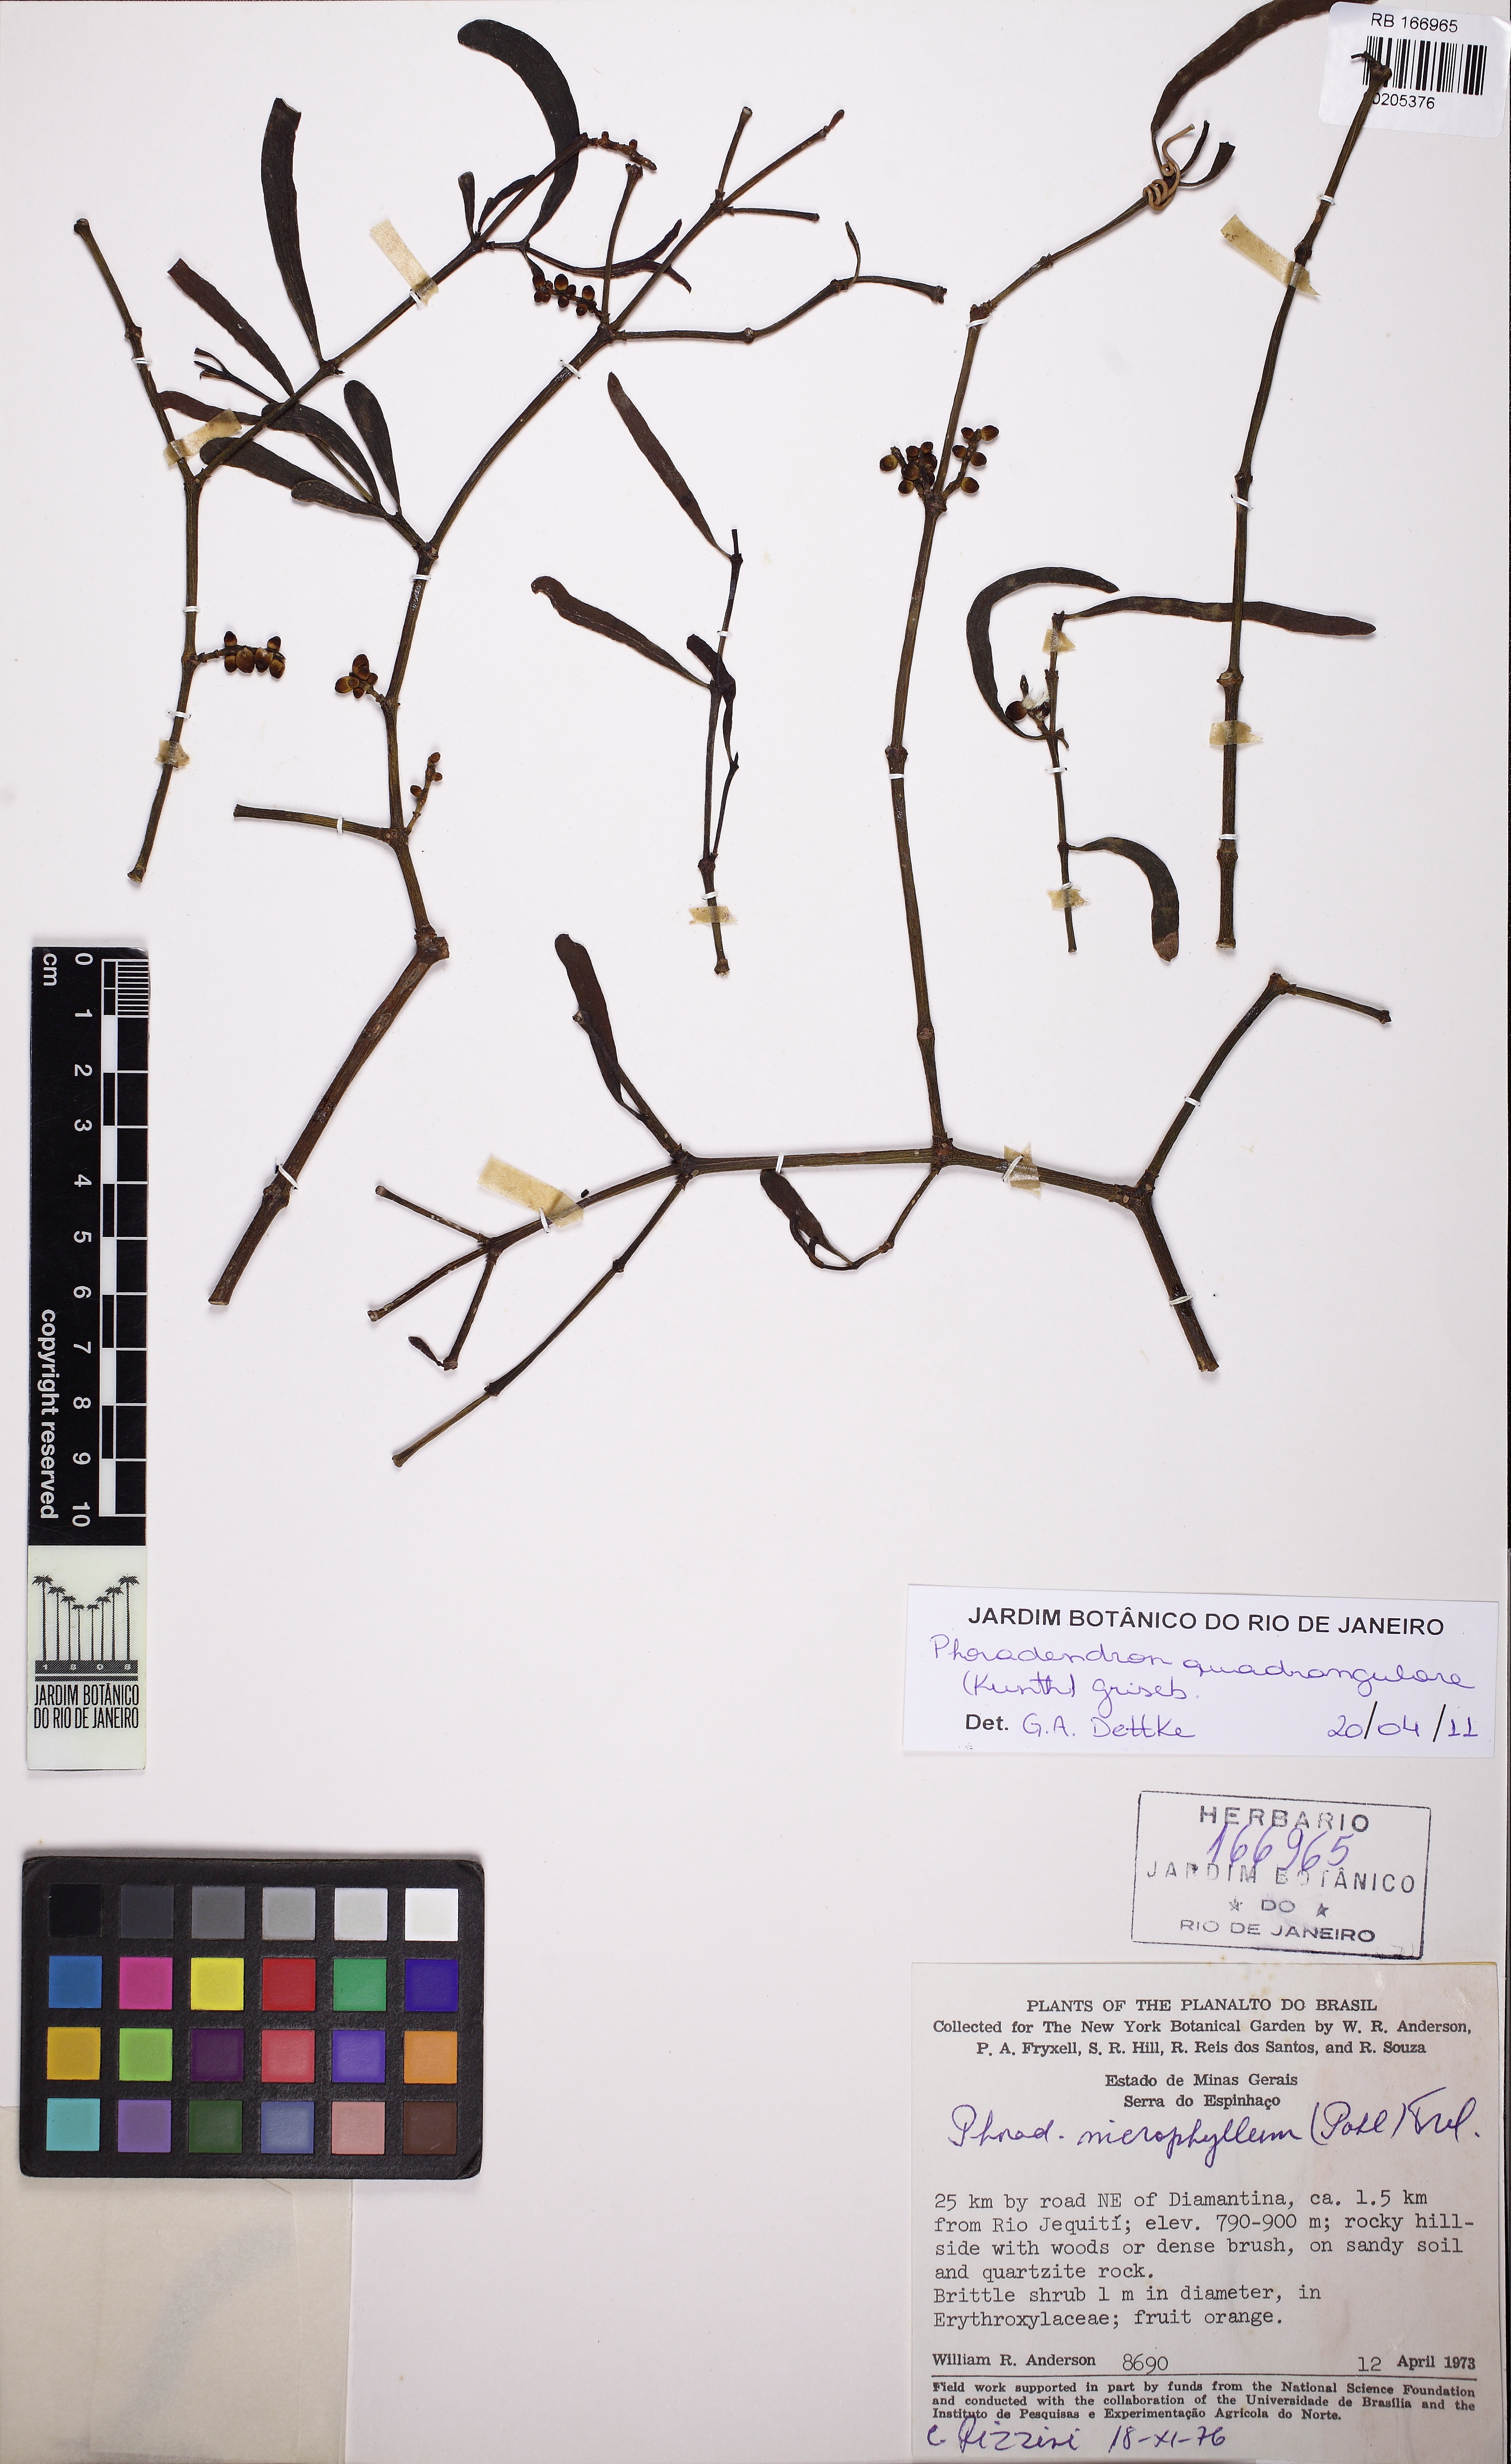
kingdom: Plantae
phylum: Tracheophyta
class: Magnoliopsida
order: Santalales
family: Viscaceae
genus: Phoradendron
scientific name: Phoradendron quadrangulare
